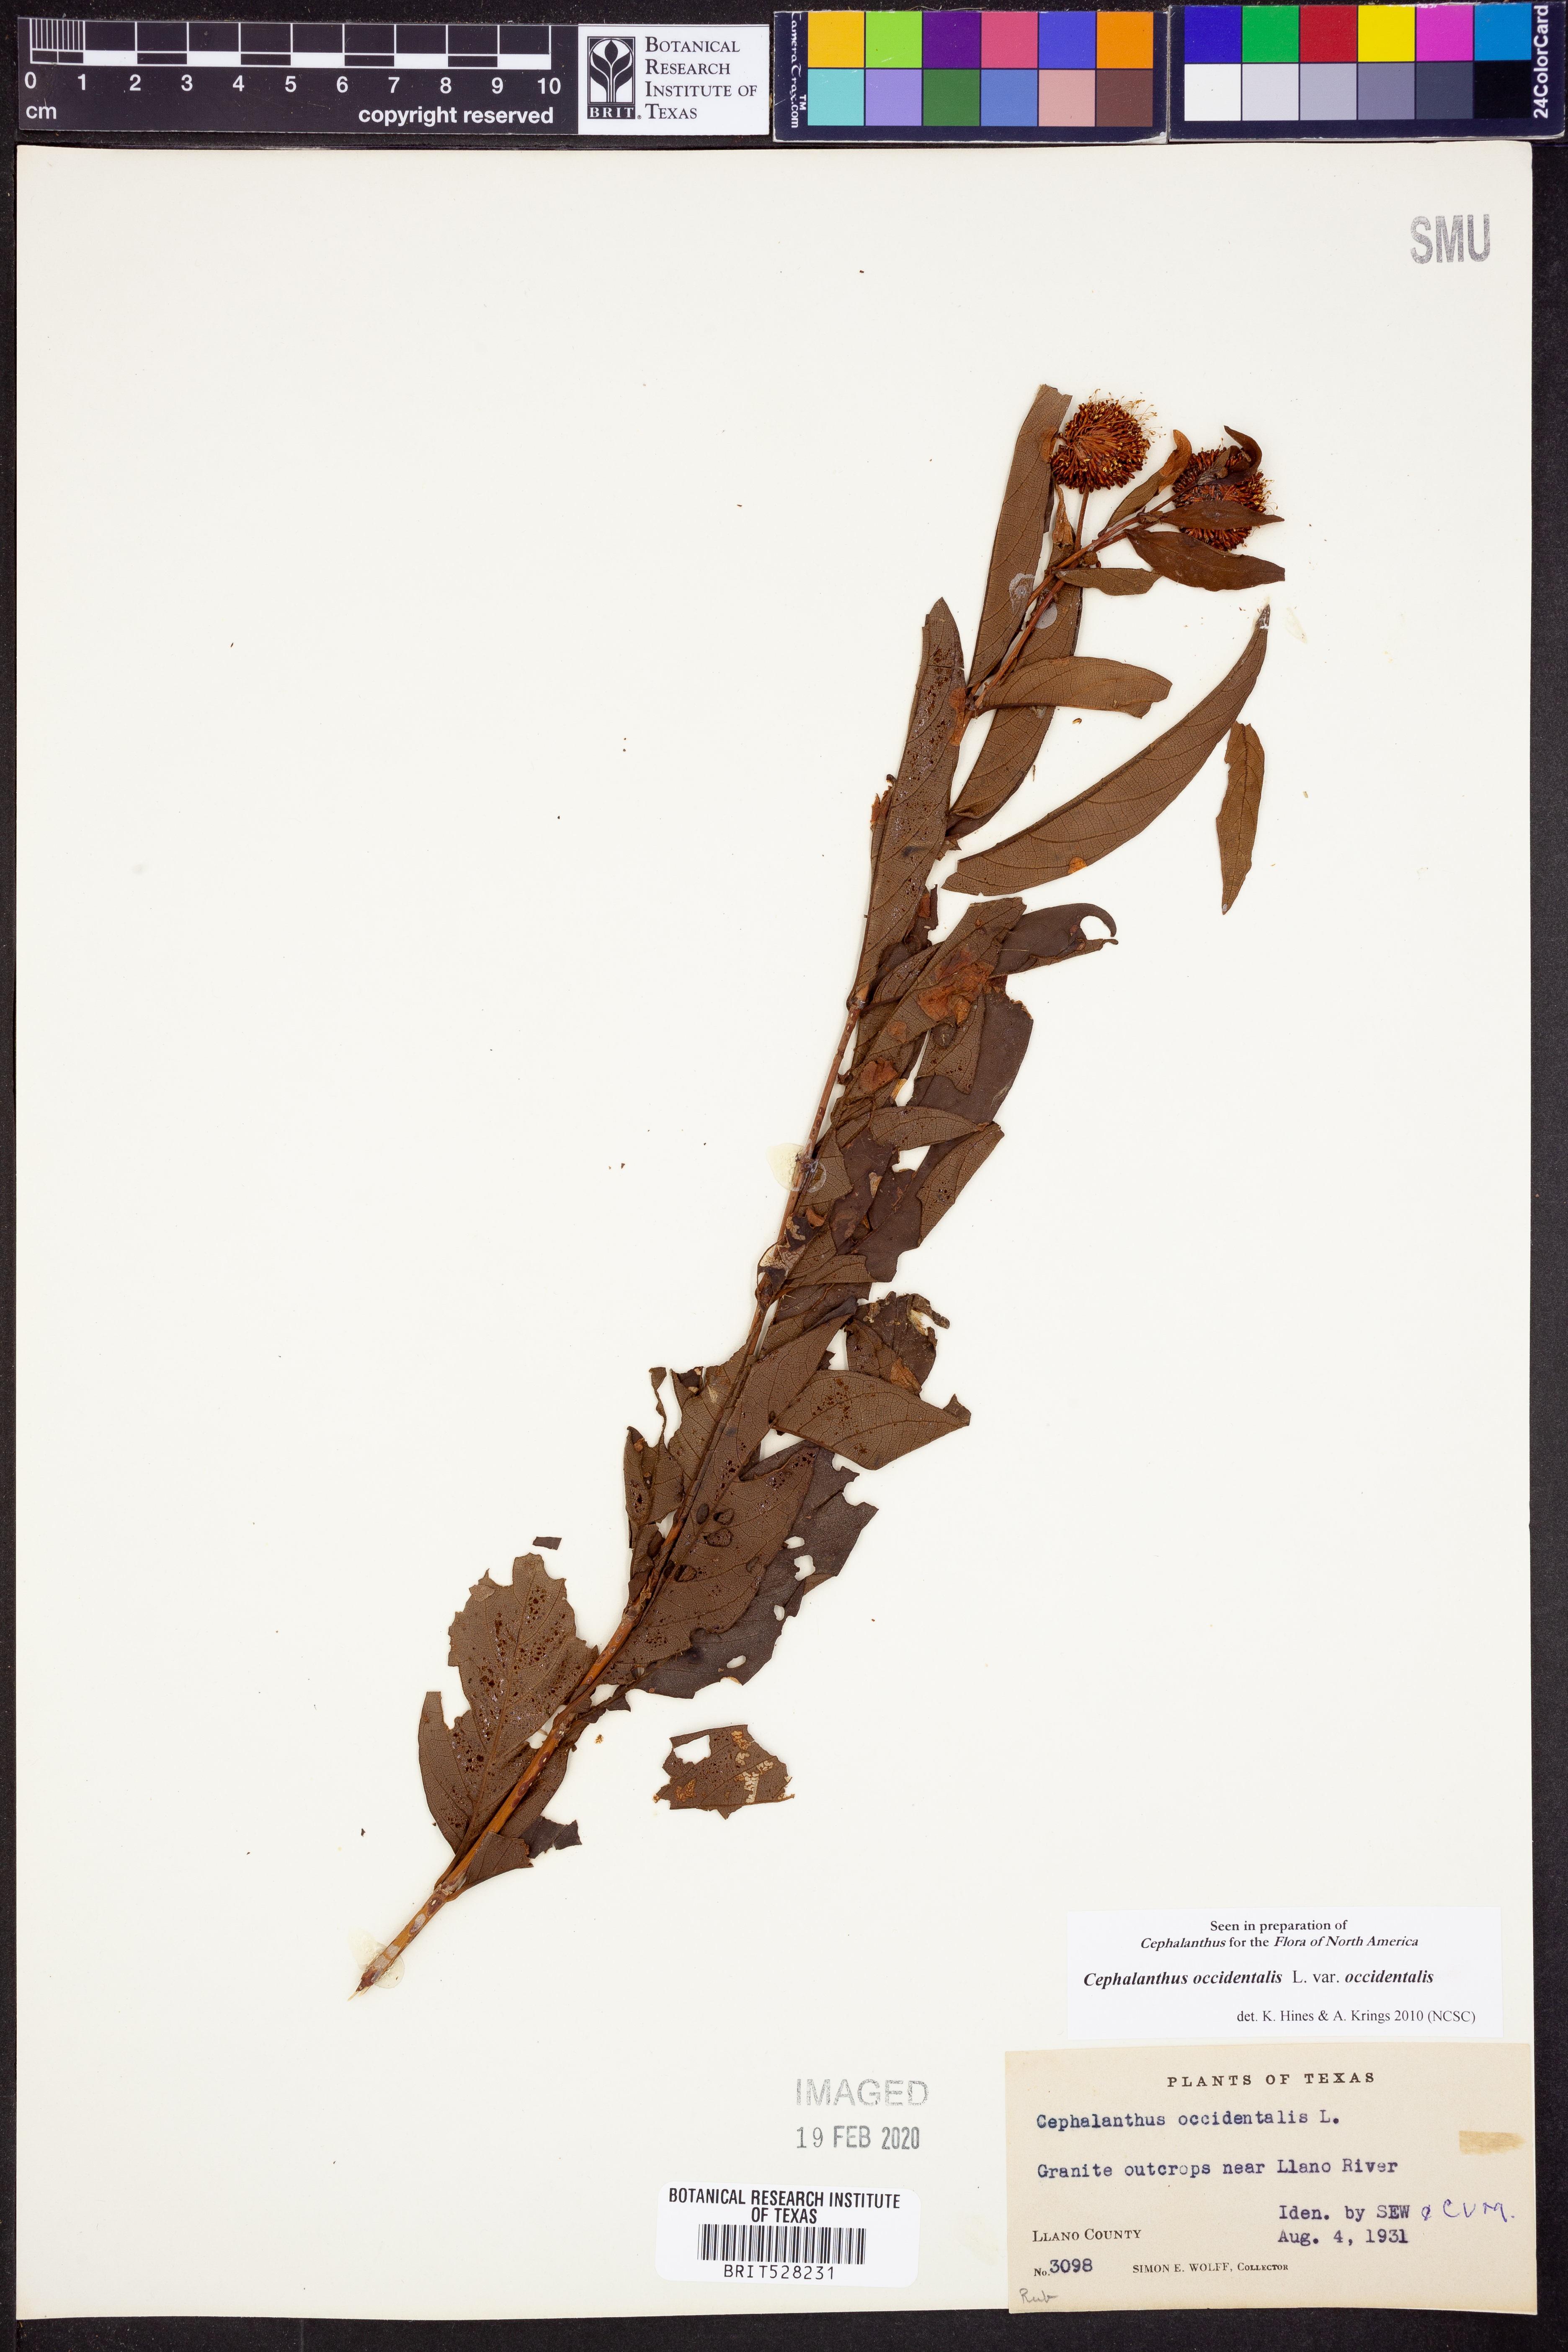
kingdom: Plantae
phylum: Tracheophyta
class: Magnoliopsida
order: Gentianales
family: Rubiaceae
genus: Cephalanthus
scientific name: Cephalanthus occidentalis
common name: Button-willow
